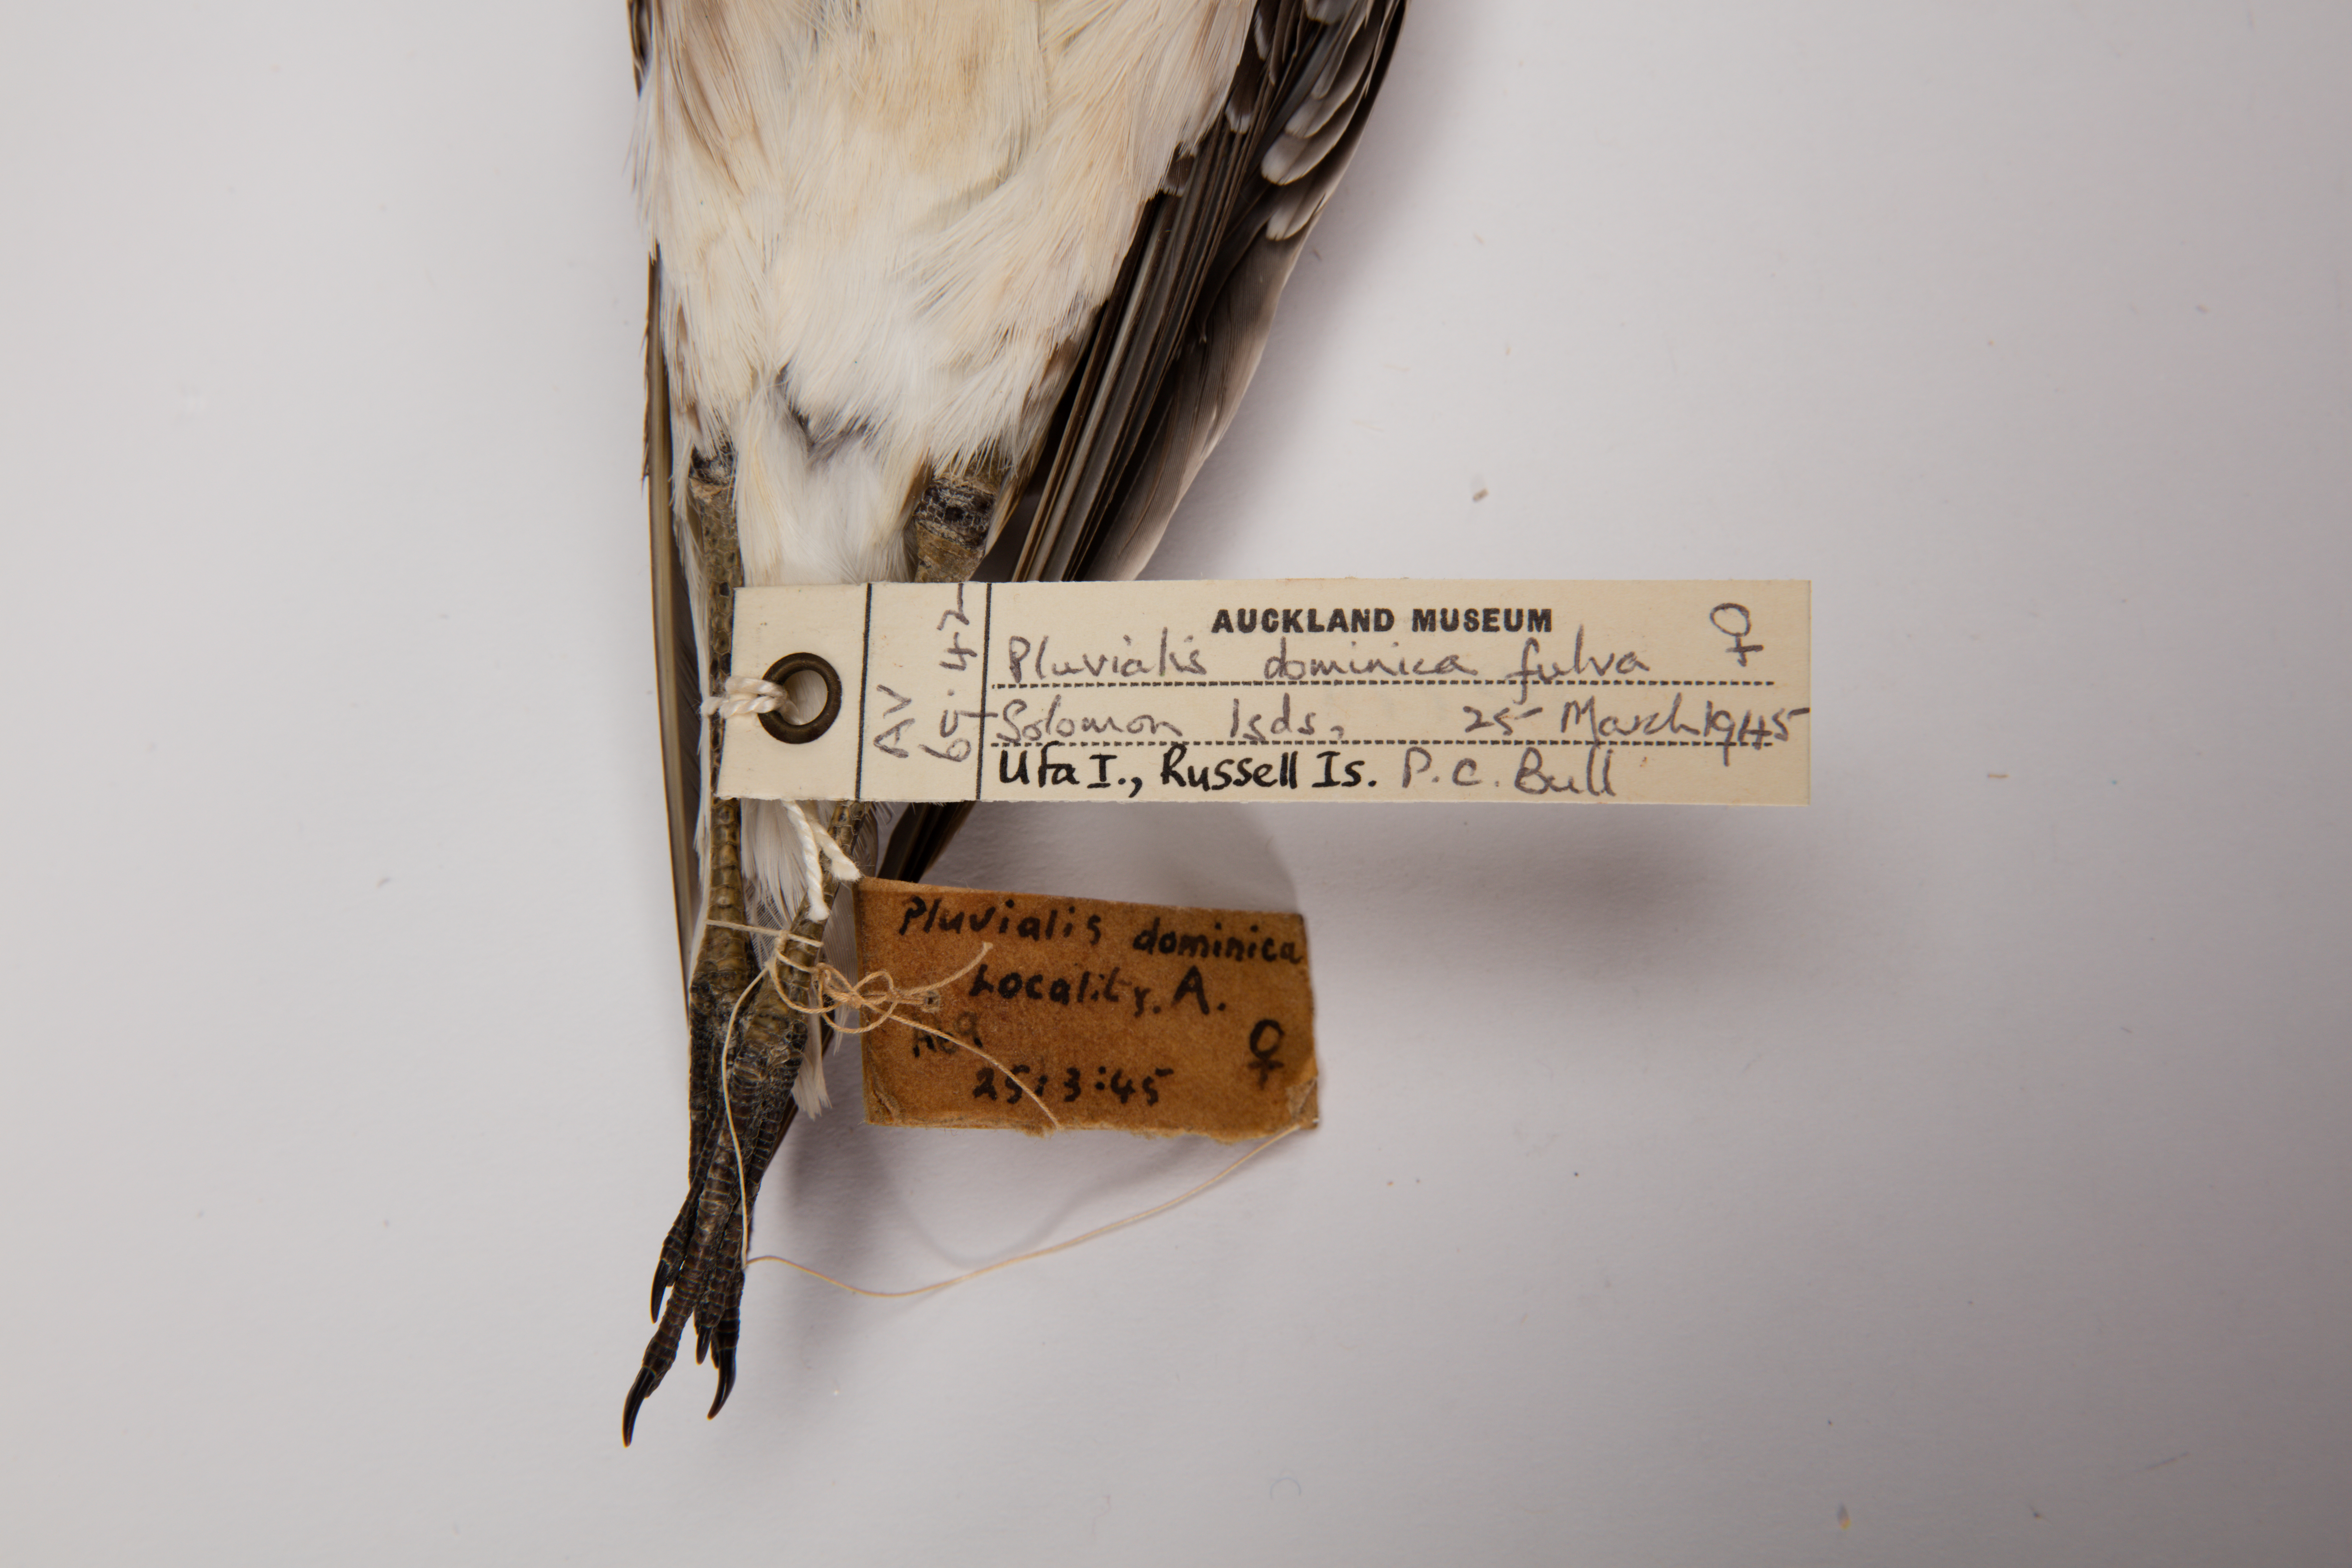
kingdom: Animalia
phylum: Chordata
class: Aves
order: Charadriiformes
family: Charadriidae
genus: Pluvialis
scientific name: Pluvialis fulva
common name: Pacific golden plover
